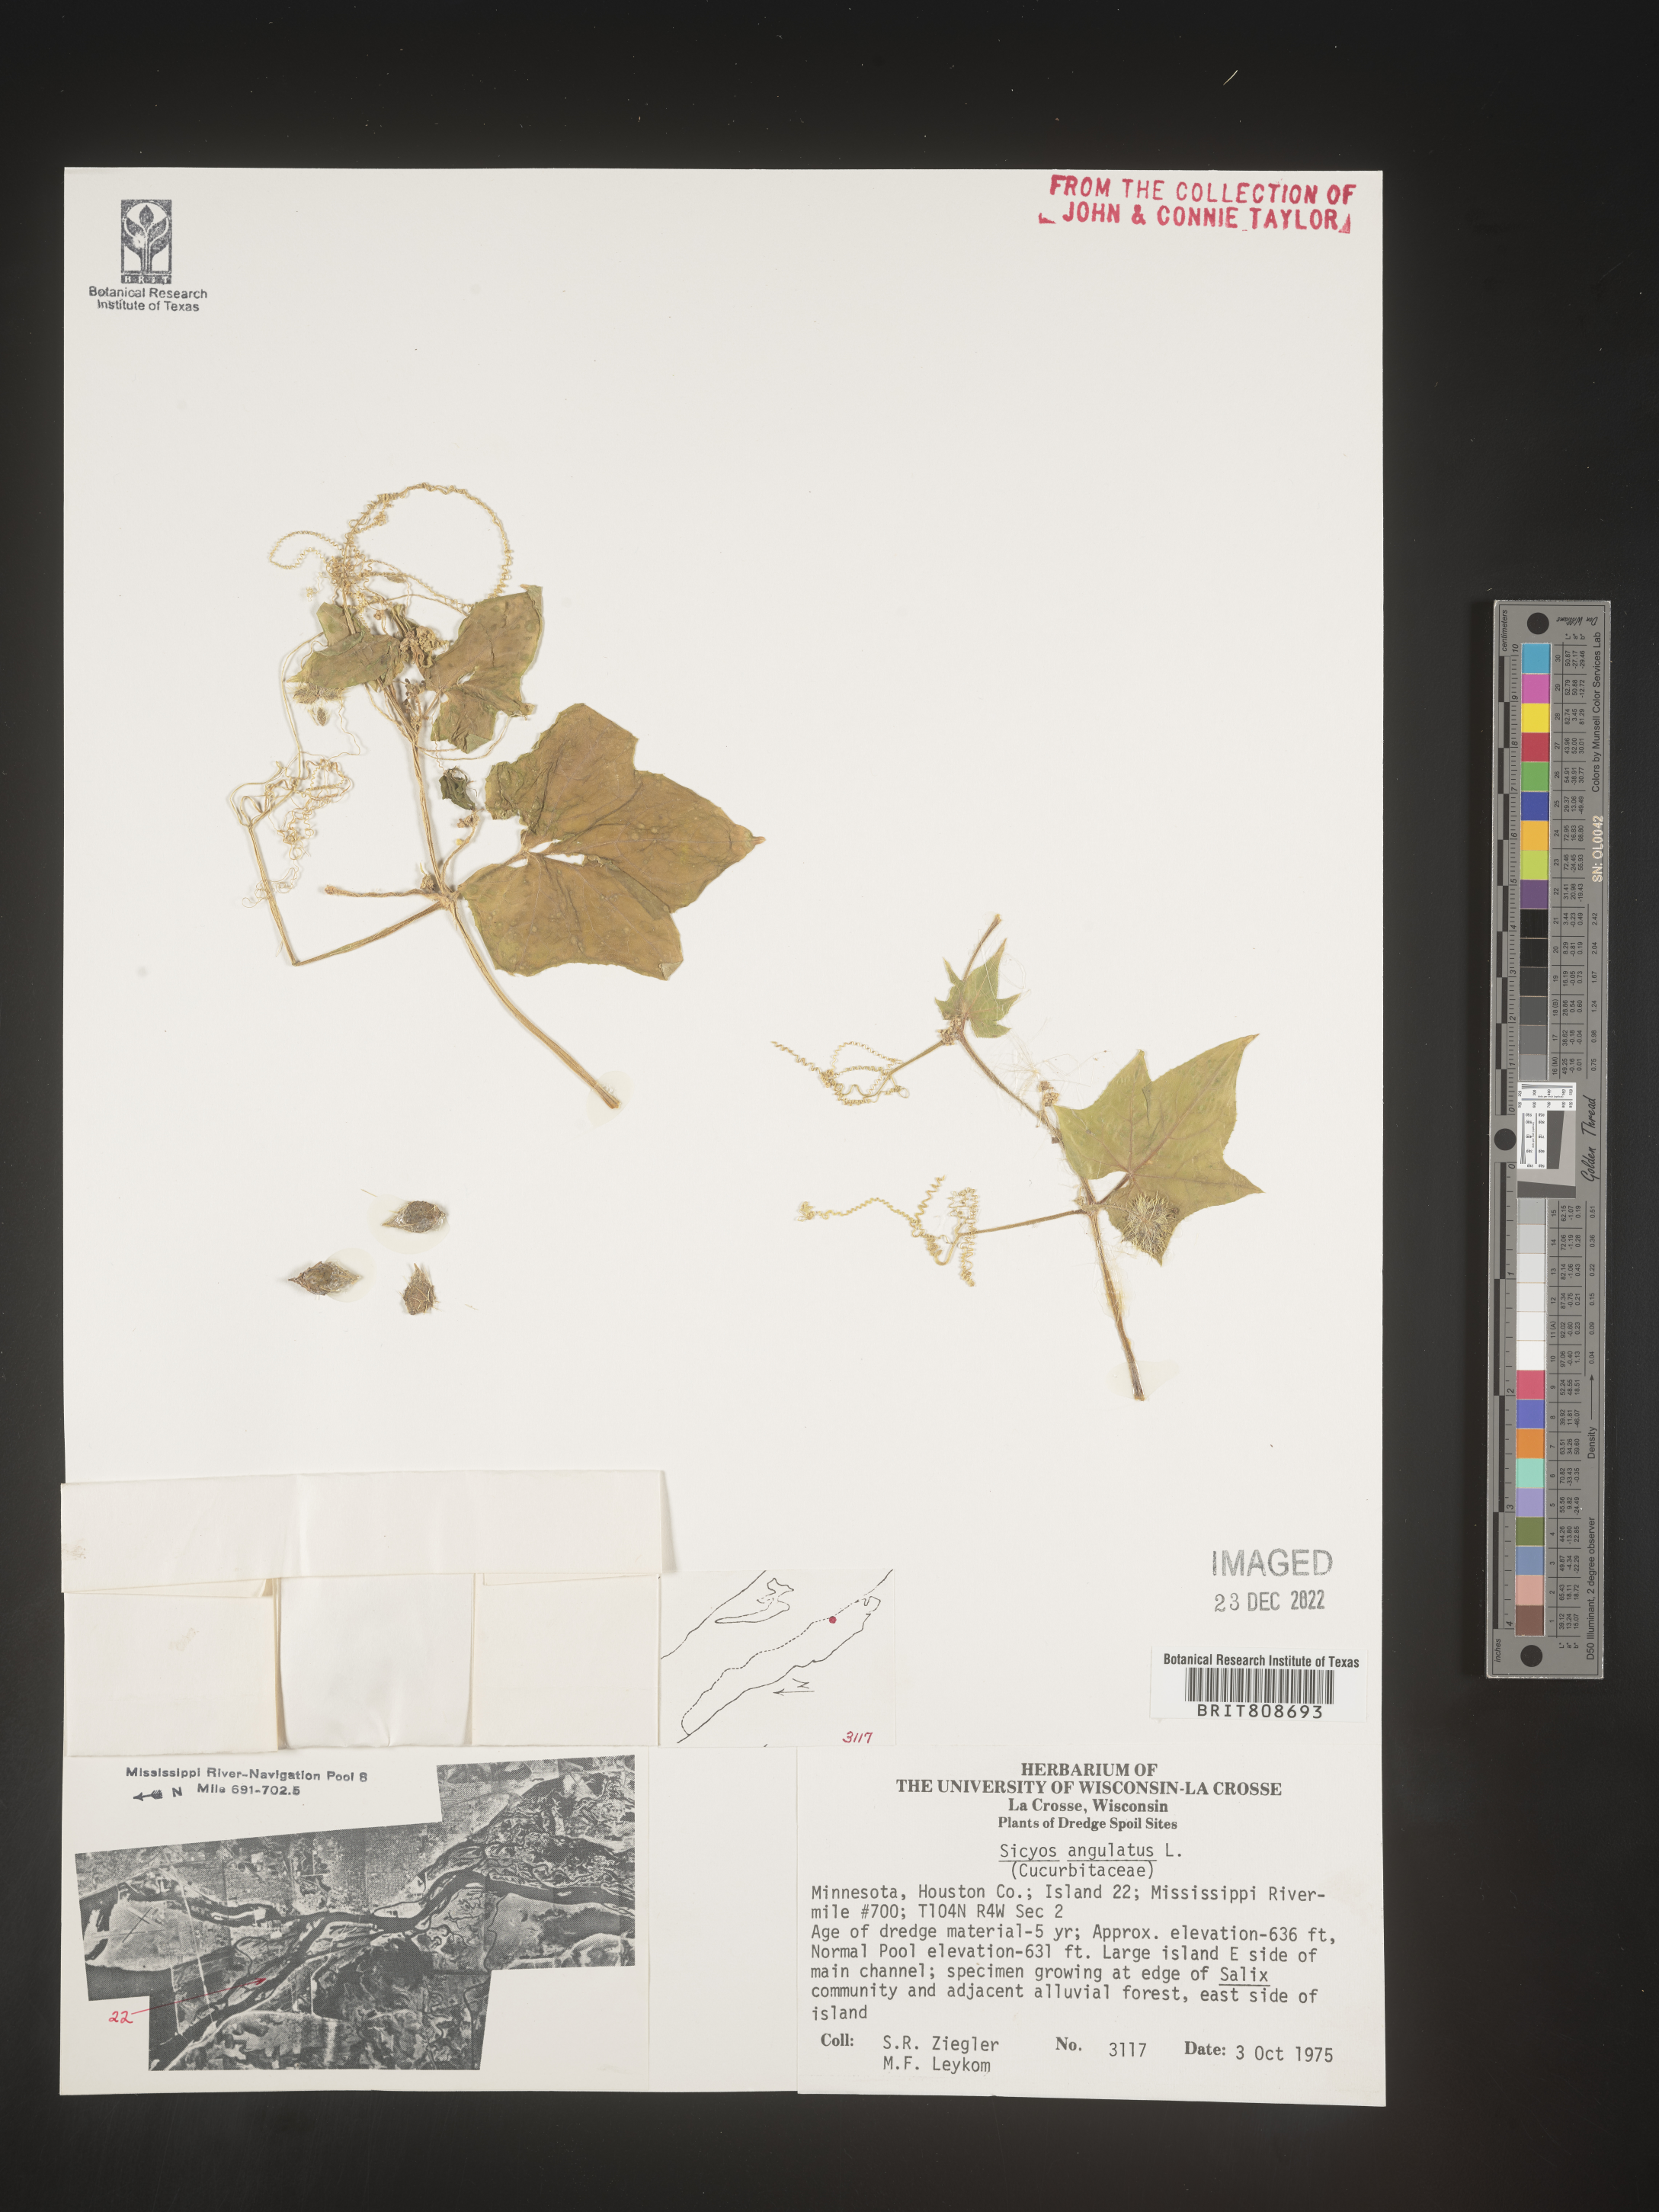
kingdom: Plantae
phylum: Tracheophyta
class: Magnoliopsida
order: Cucurbitales
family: Cucurbitaceae
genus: Sicyos
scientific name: Sicyos angulatus
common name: Angled burr cucumber
